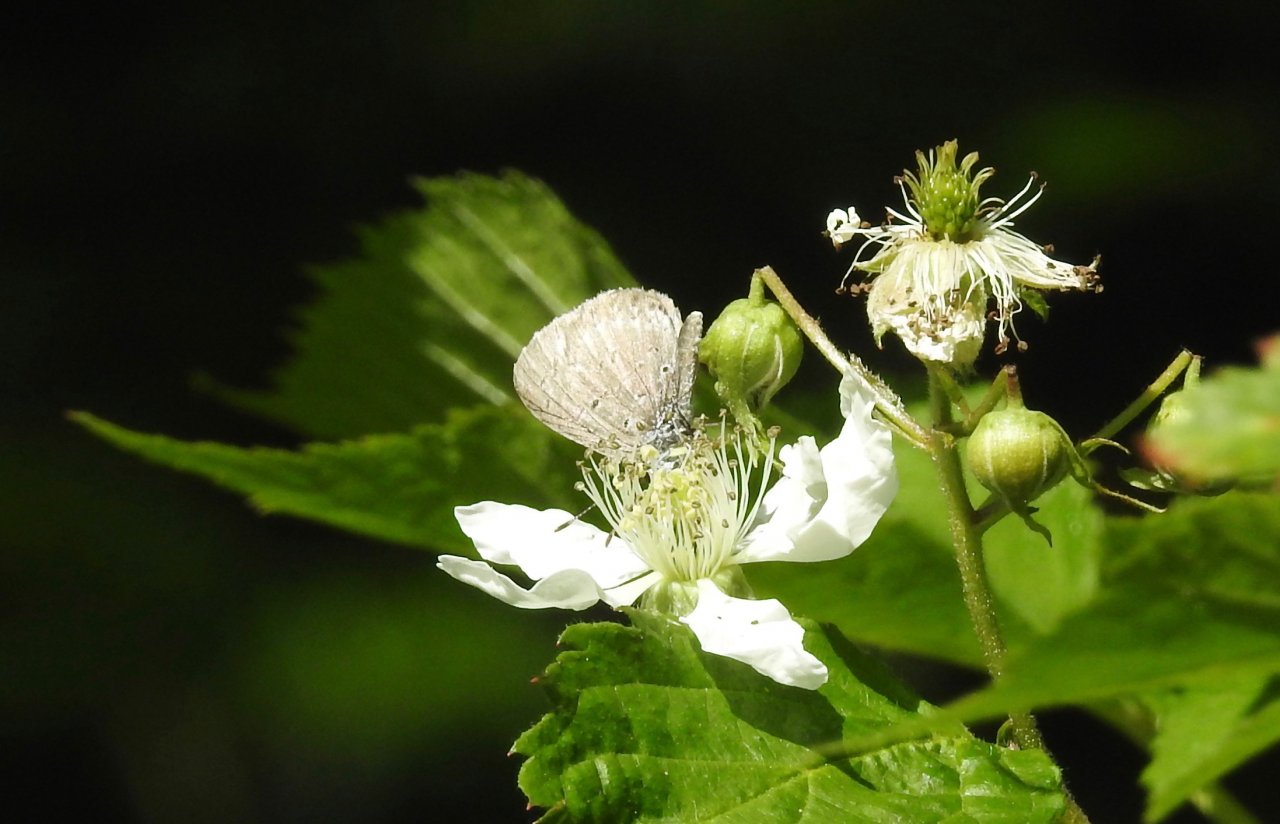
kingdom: Animalia
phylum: Arthropoda
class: Insecta
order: Lepidoptera
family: Lycaenidae
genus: Celastrina
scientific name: Celastrina lucia
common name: Northern Spring Azure
